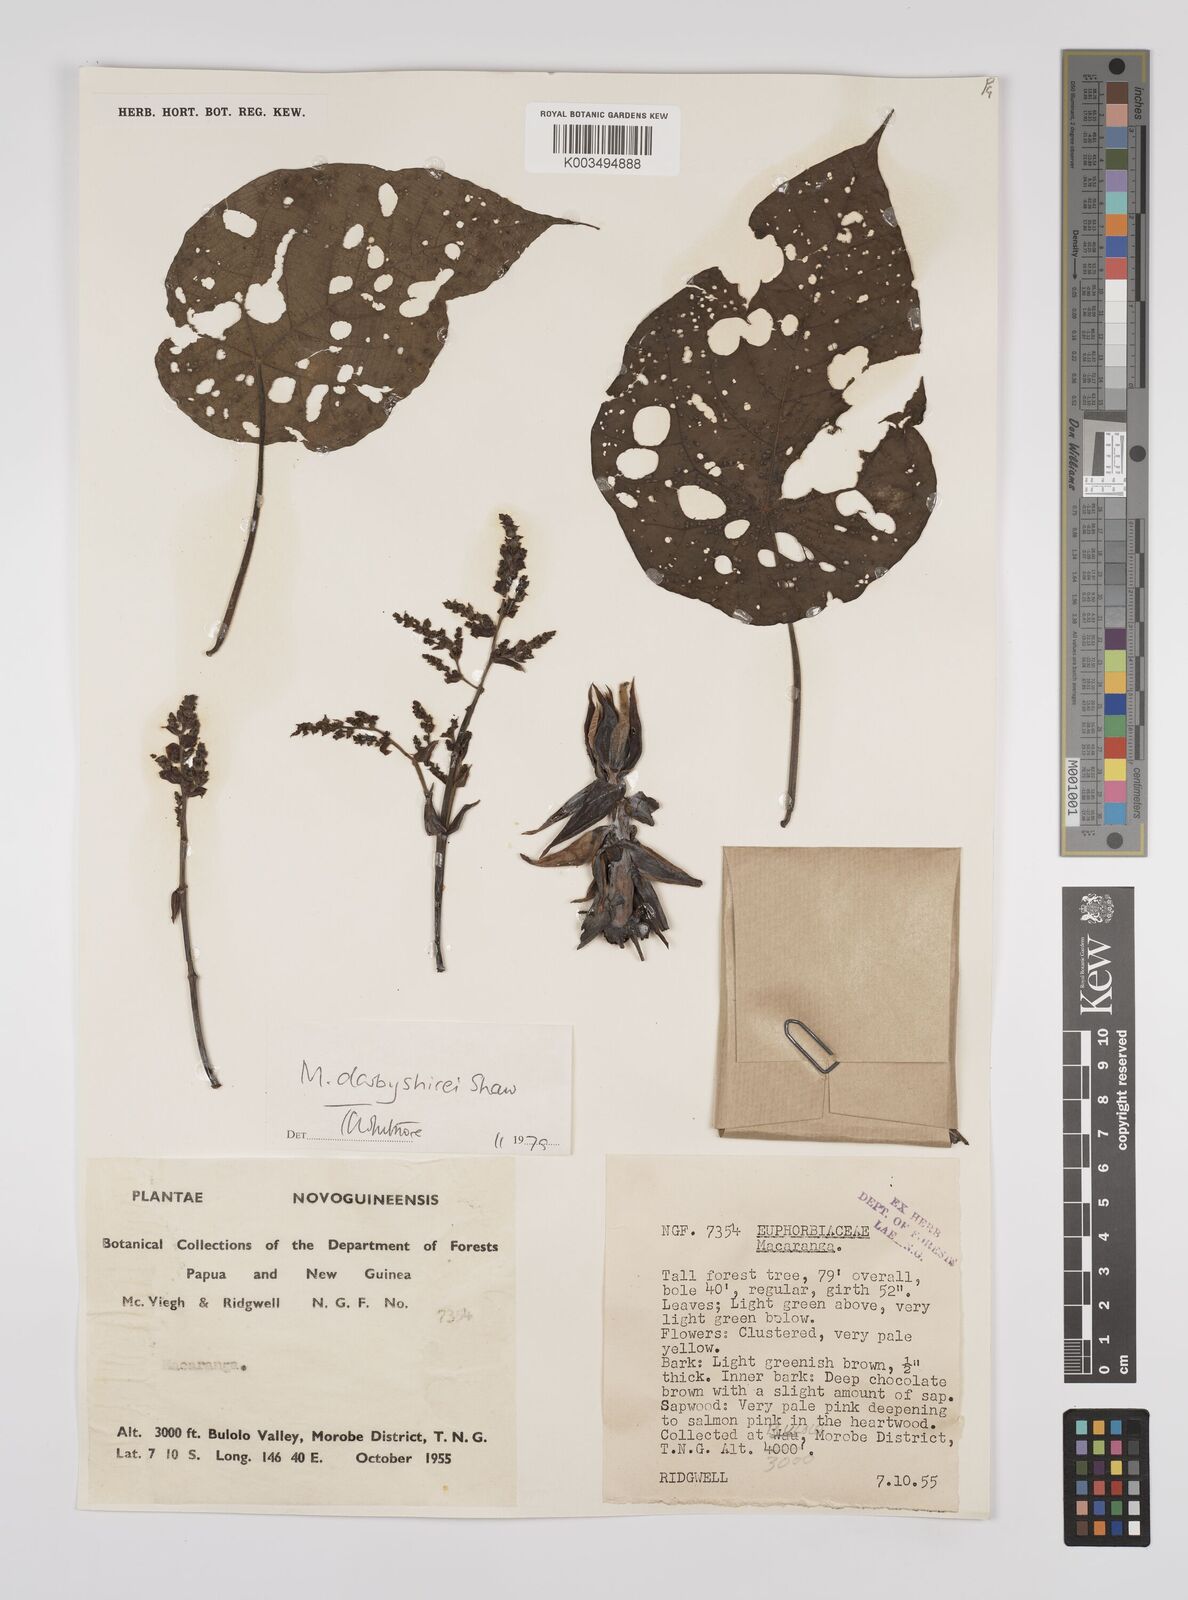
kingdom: Plantae
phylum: Tracheophyta
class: Magnoliopsida
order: Malpighiales
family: Euphorbiaceae
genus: Macaranga
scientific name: Macaranga darbyshirei
